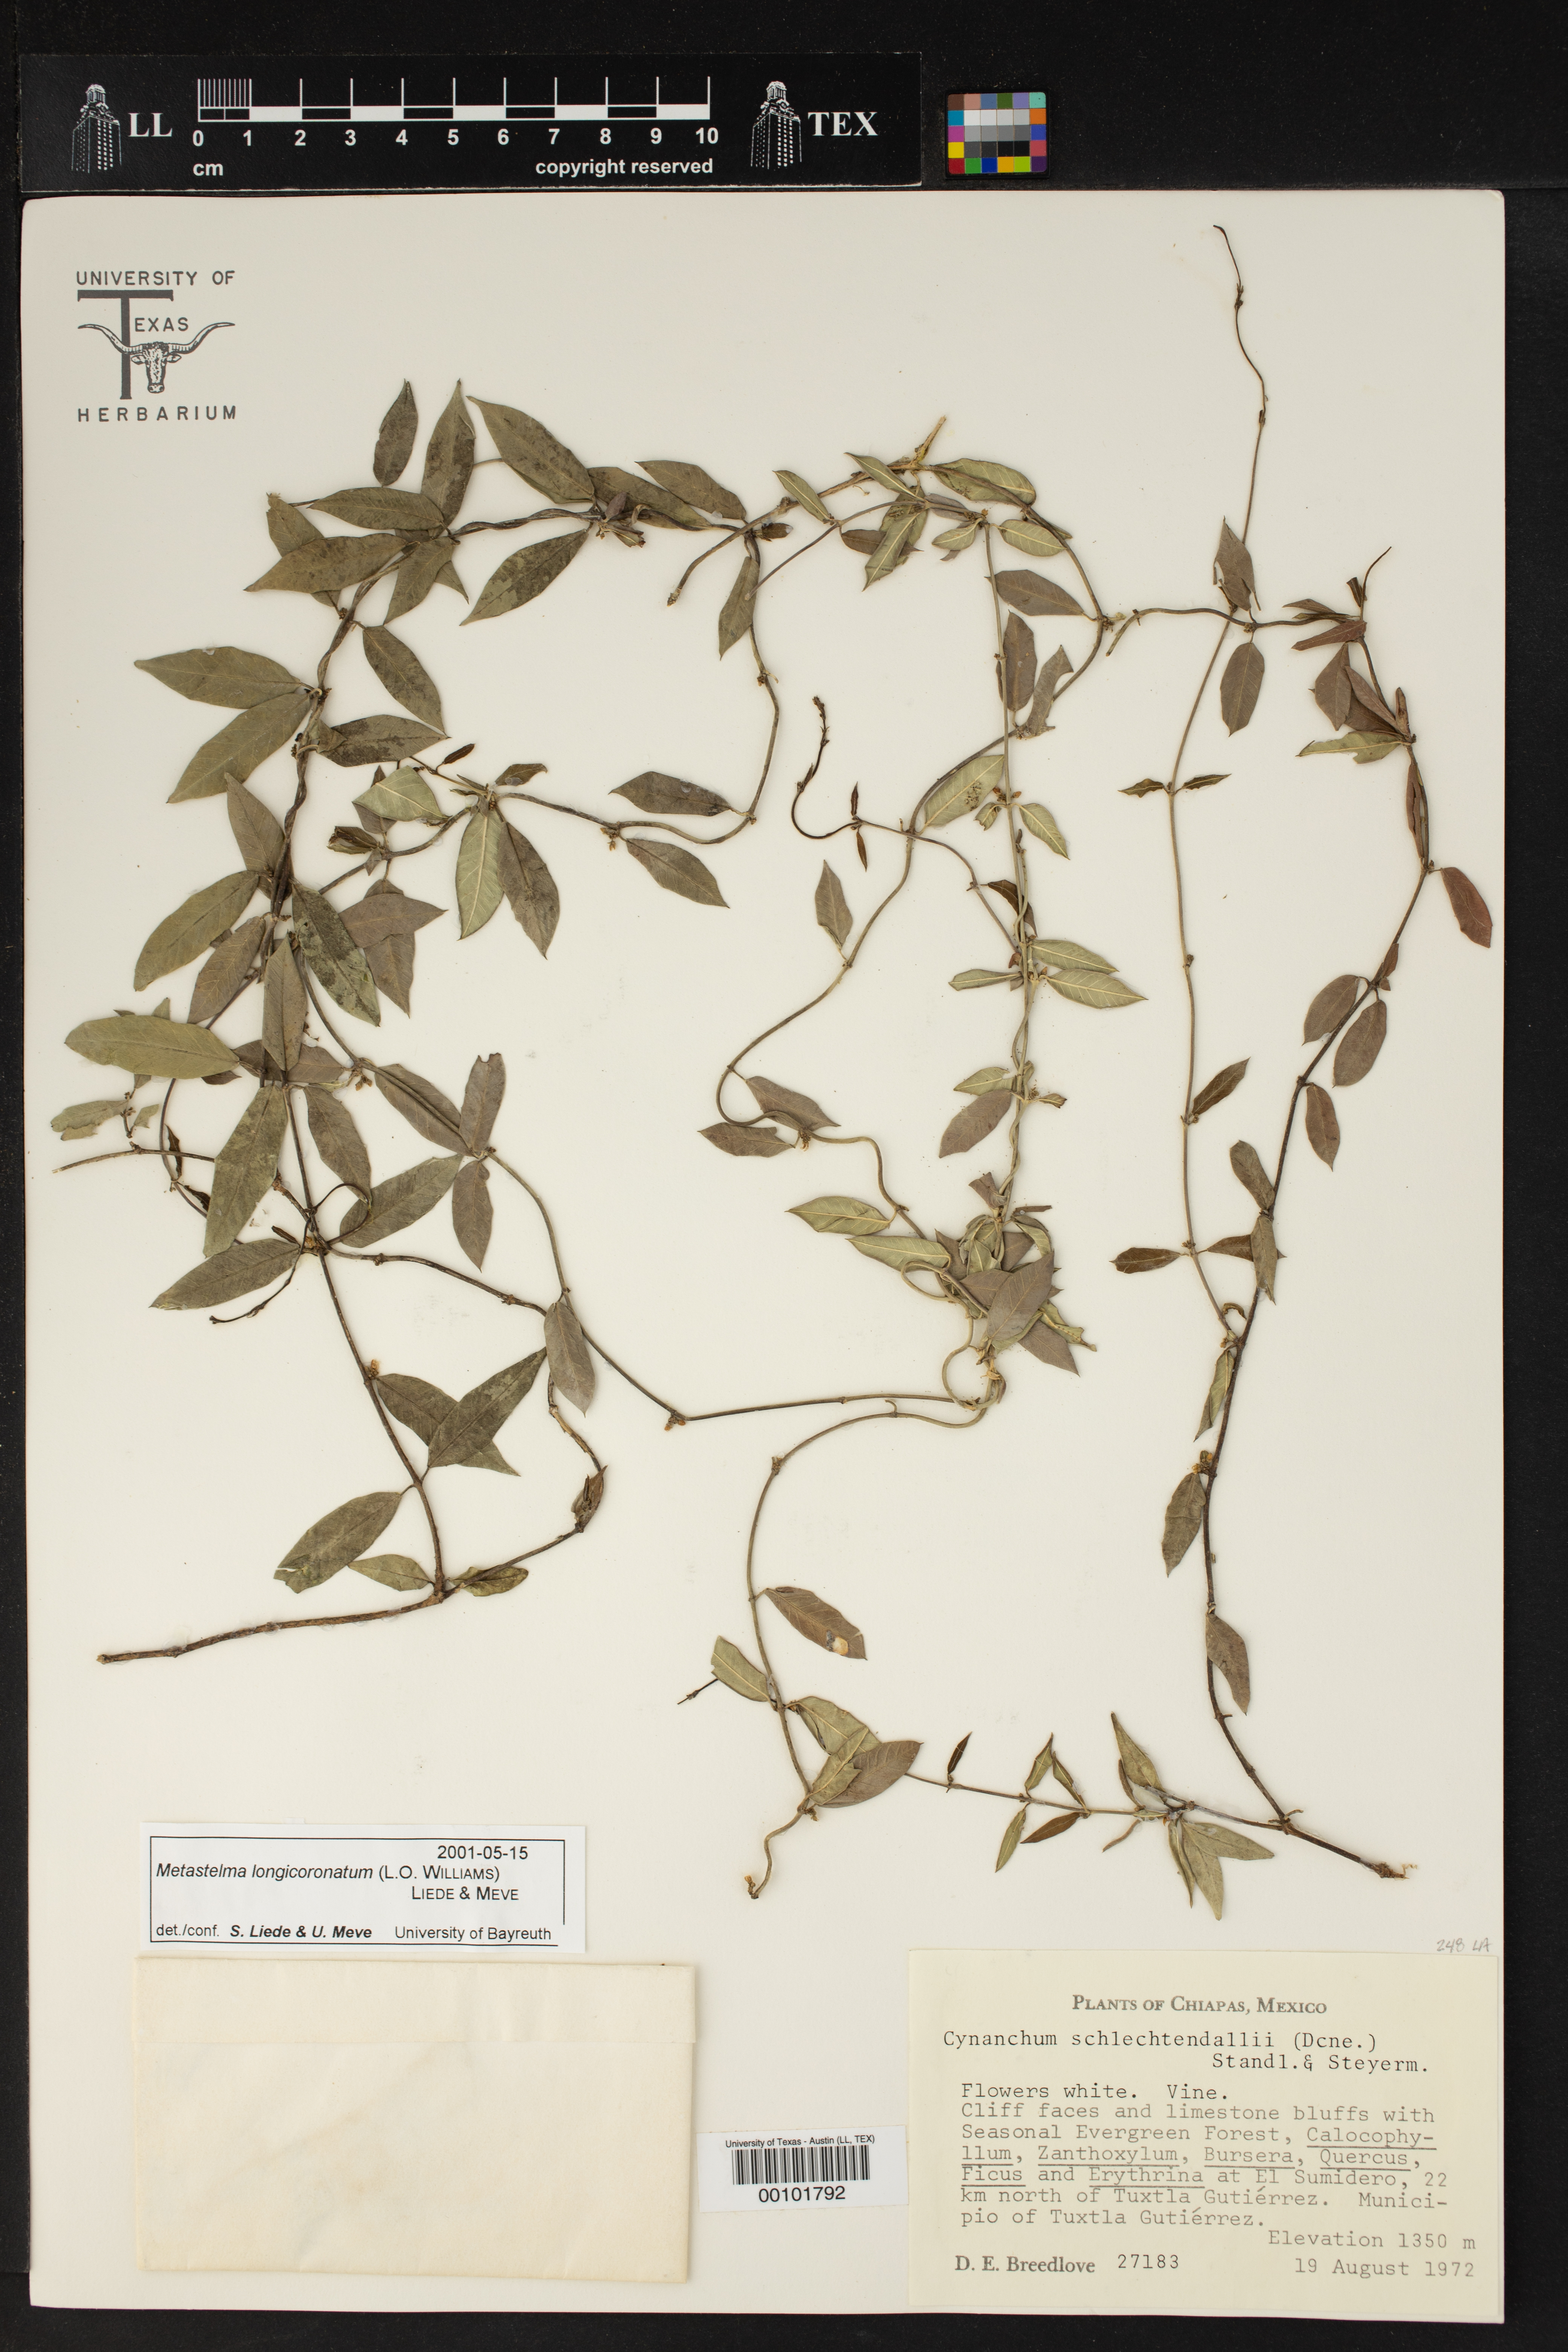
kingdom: Plantae
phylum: Tracheophyta
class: Magnoliopsida
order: Gentianales
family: Apocynaceae
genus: Metastelma
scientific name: Metastelma longicoronatum
